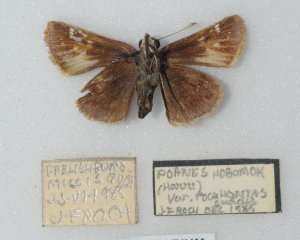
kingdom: Animalia
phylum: Arthropoda
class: Insecta
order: Lepidoptera
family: Hesperiidae
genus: Lon
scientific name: Lon hobomok
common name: Hobomok Skipper
